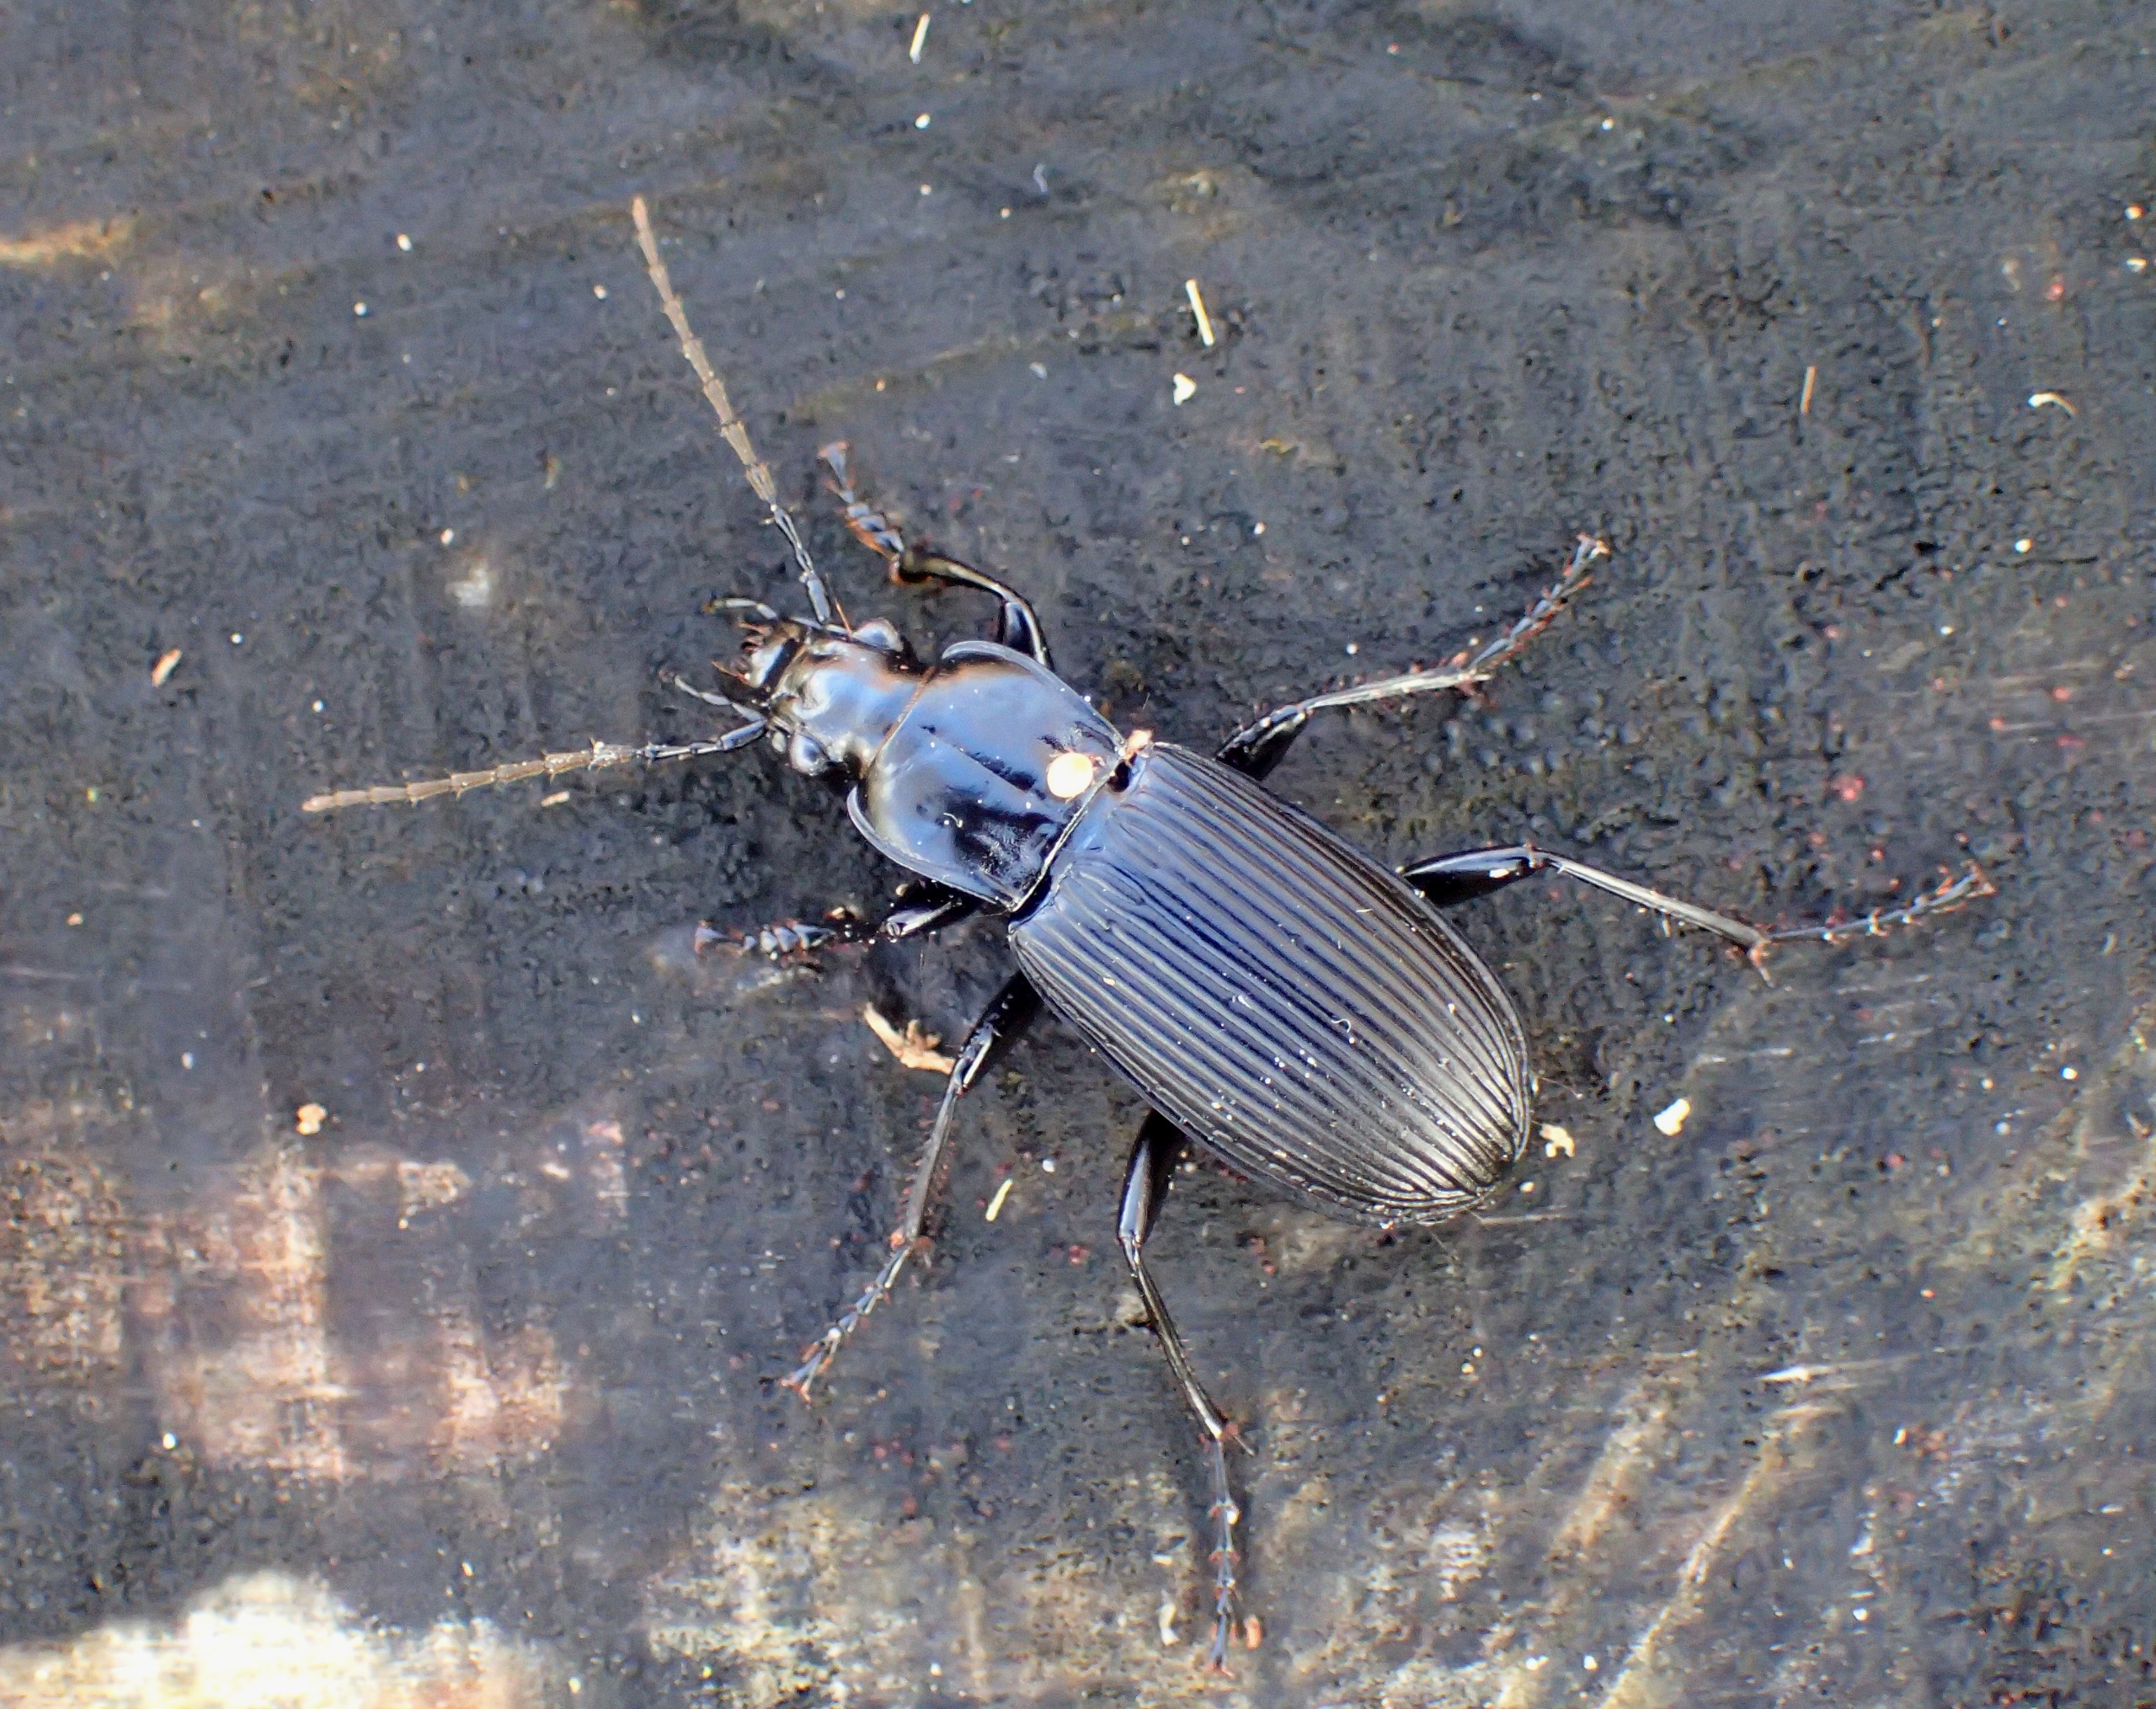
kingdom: Animalia
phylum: Arthropoda
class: Insecta
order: Coleoptera
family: Carabidae
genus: Pterostichus
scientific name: Pterostichus niger
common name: Skovjordløber
